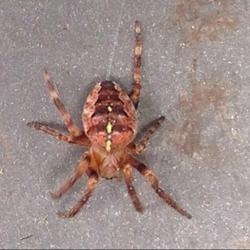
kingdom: Animalia
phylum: Arthropoda
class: Arachnida
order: Araneae
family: Araneidae
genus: Araneus
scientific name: Araneus diadematus
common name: Korsedderkop
